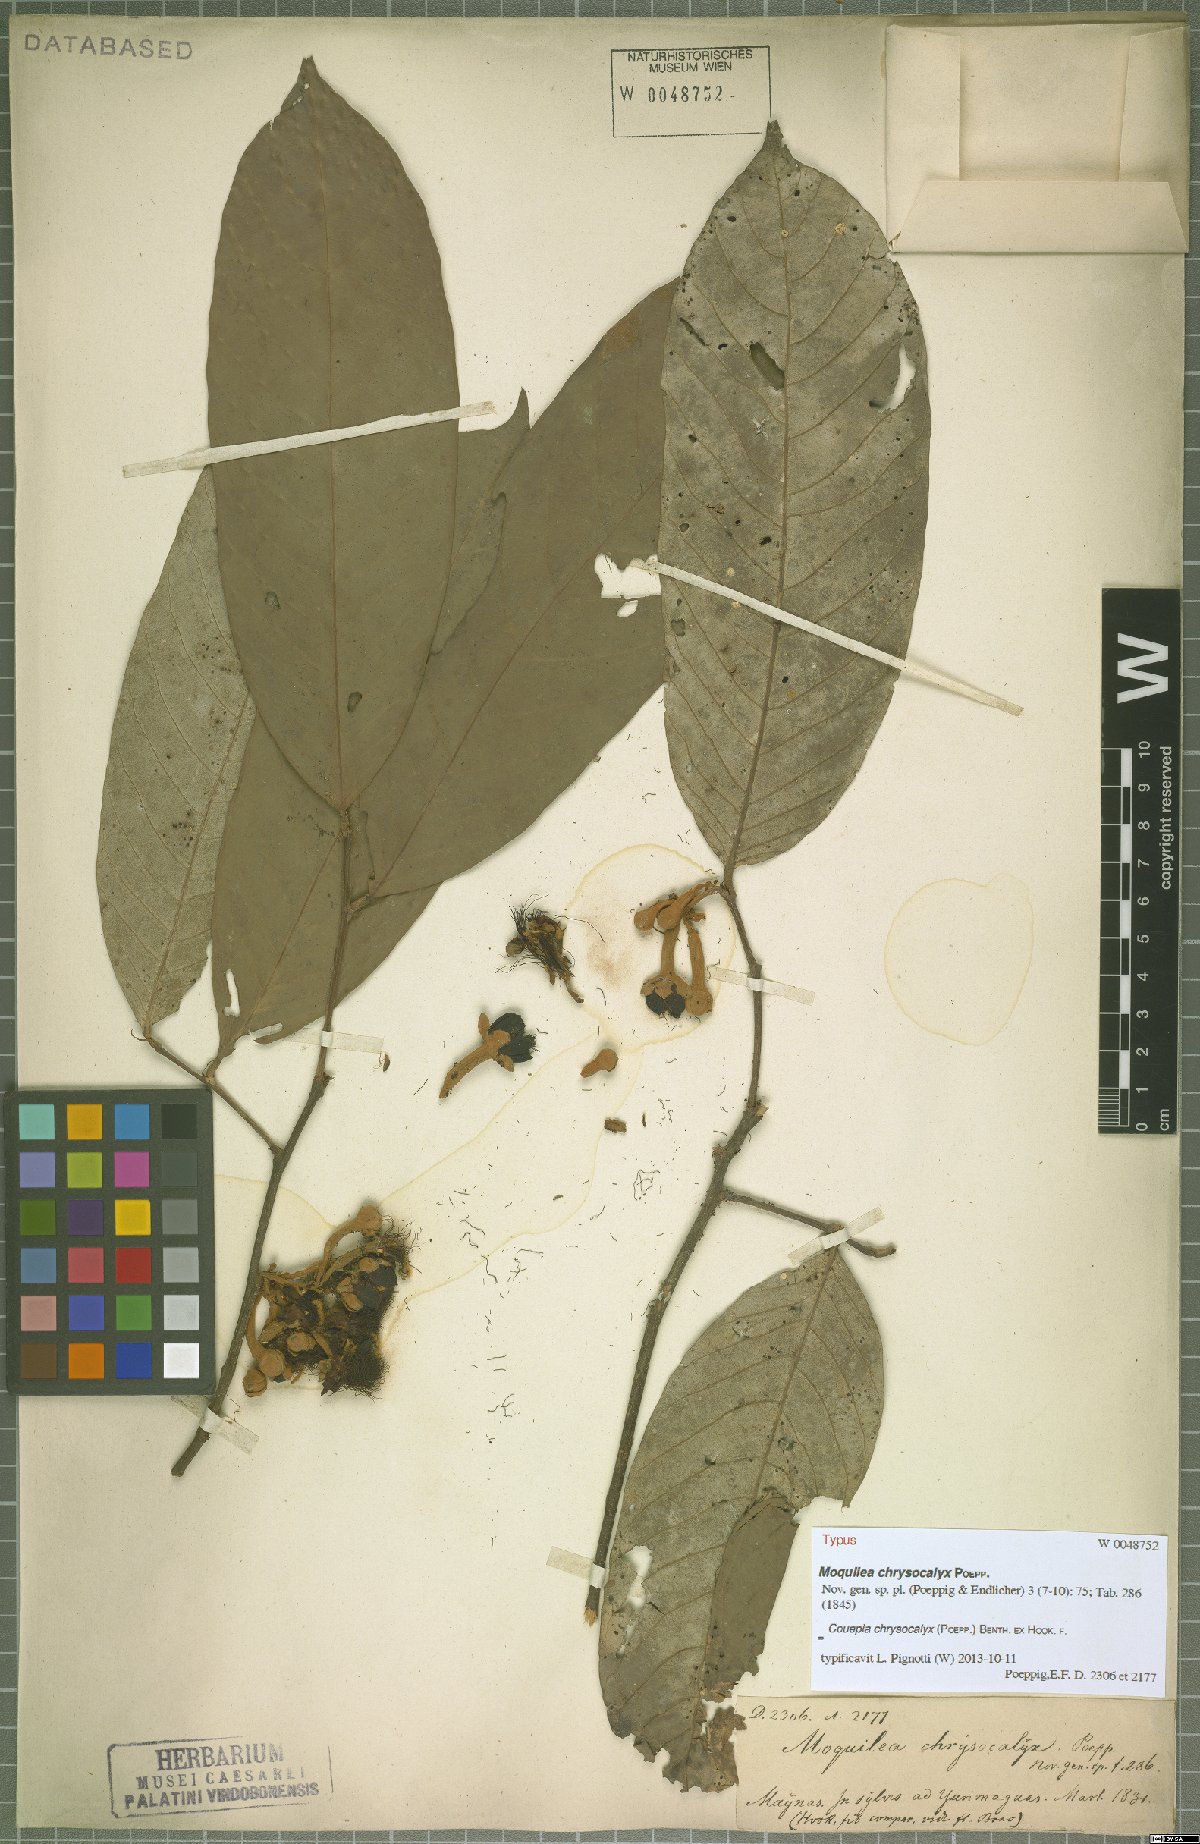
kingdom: Plantae
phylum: Tracheophyta
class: Magnoliopsida
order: Malpighiales
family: Chrysobalanaceae
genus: Couepia
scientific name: Couepia chrysocalyx
